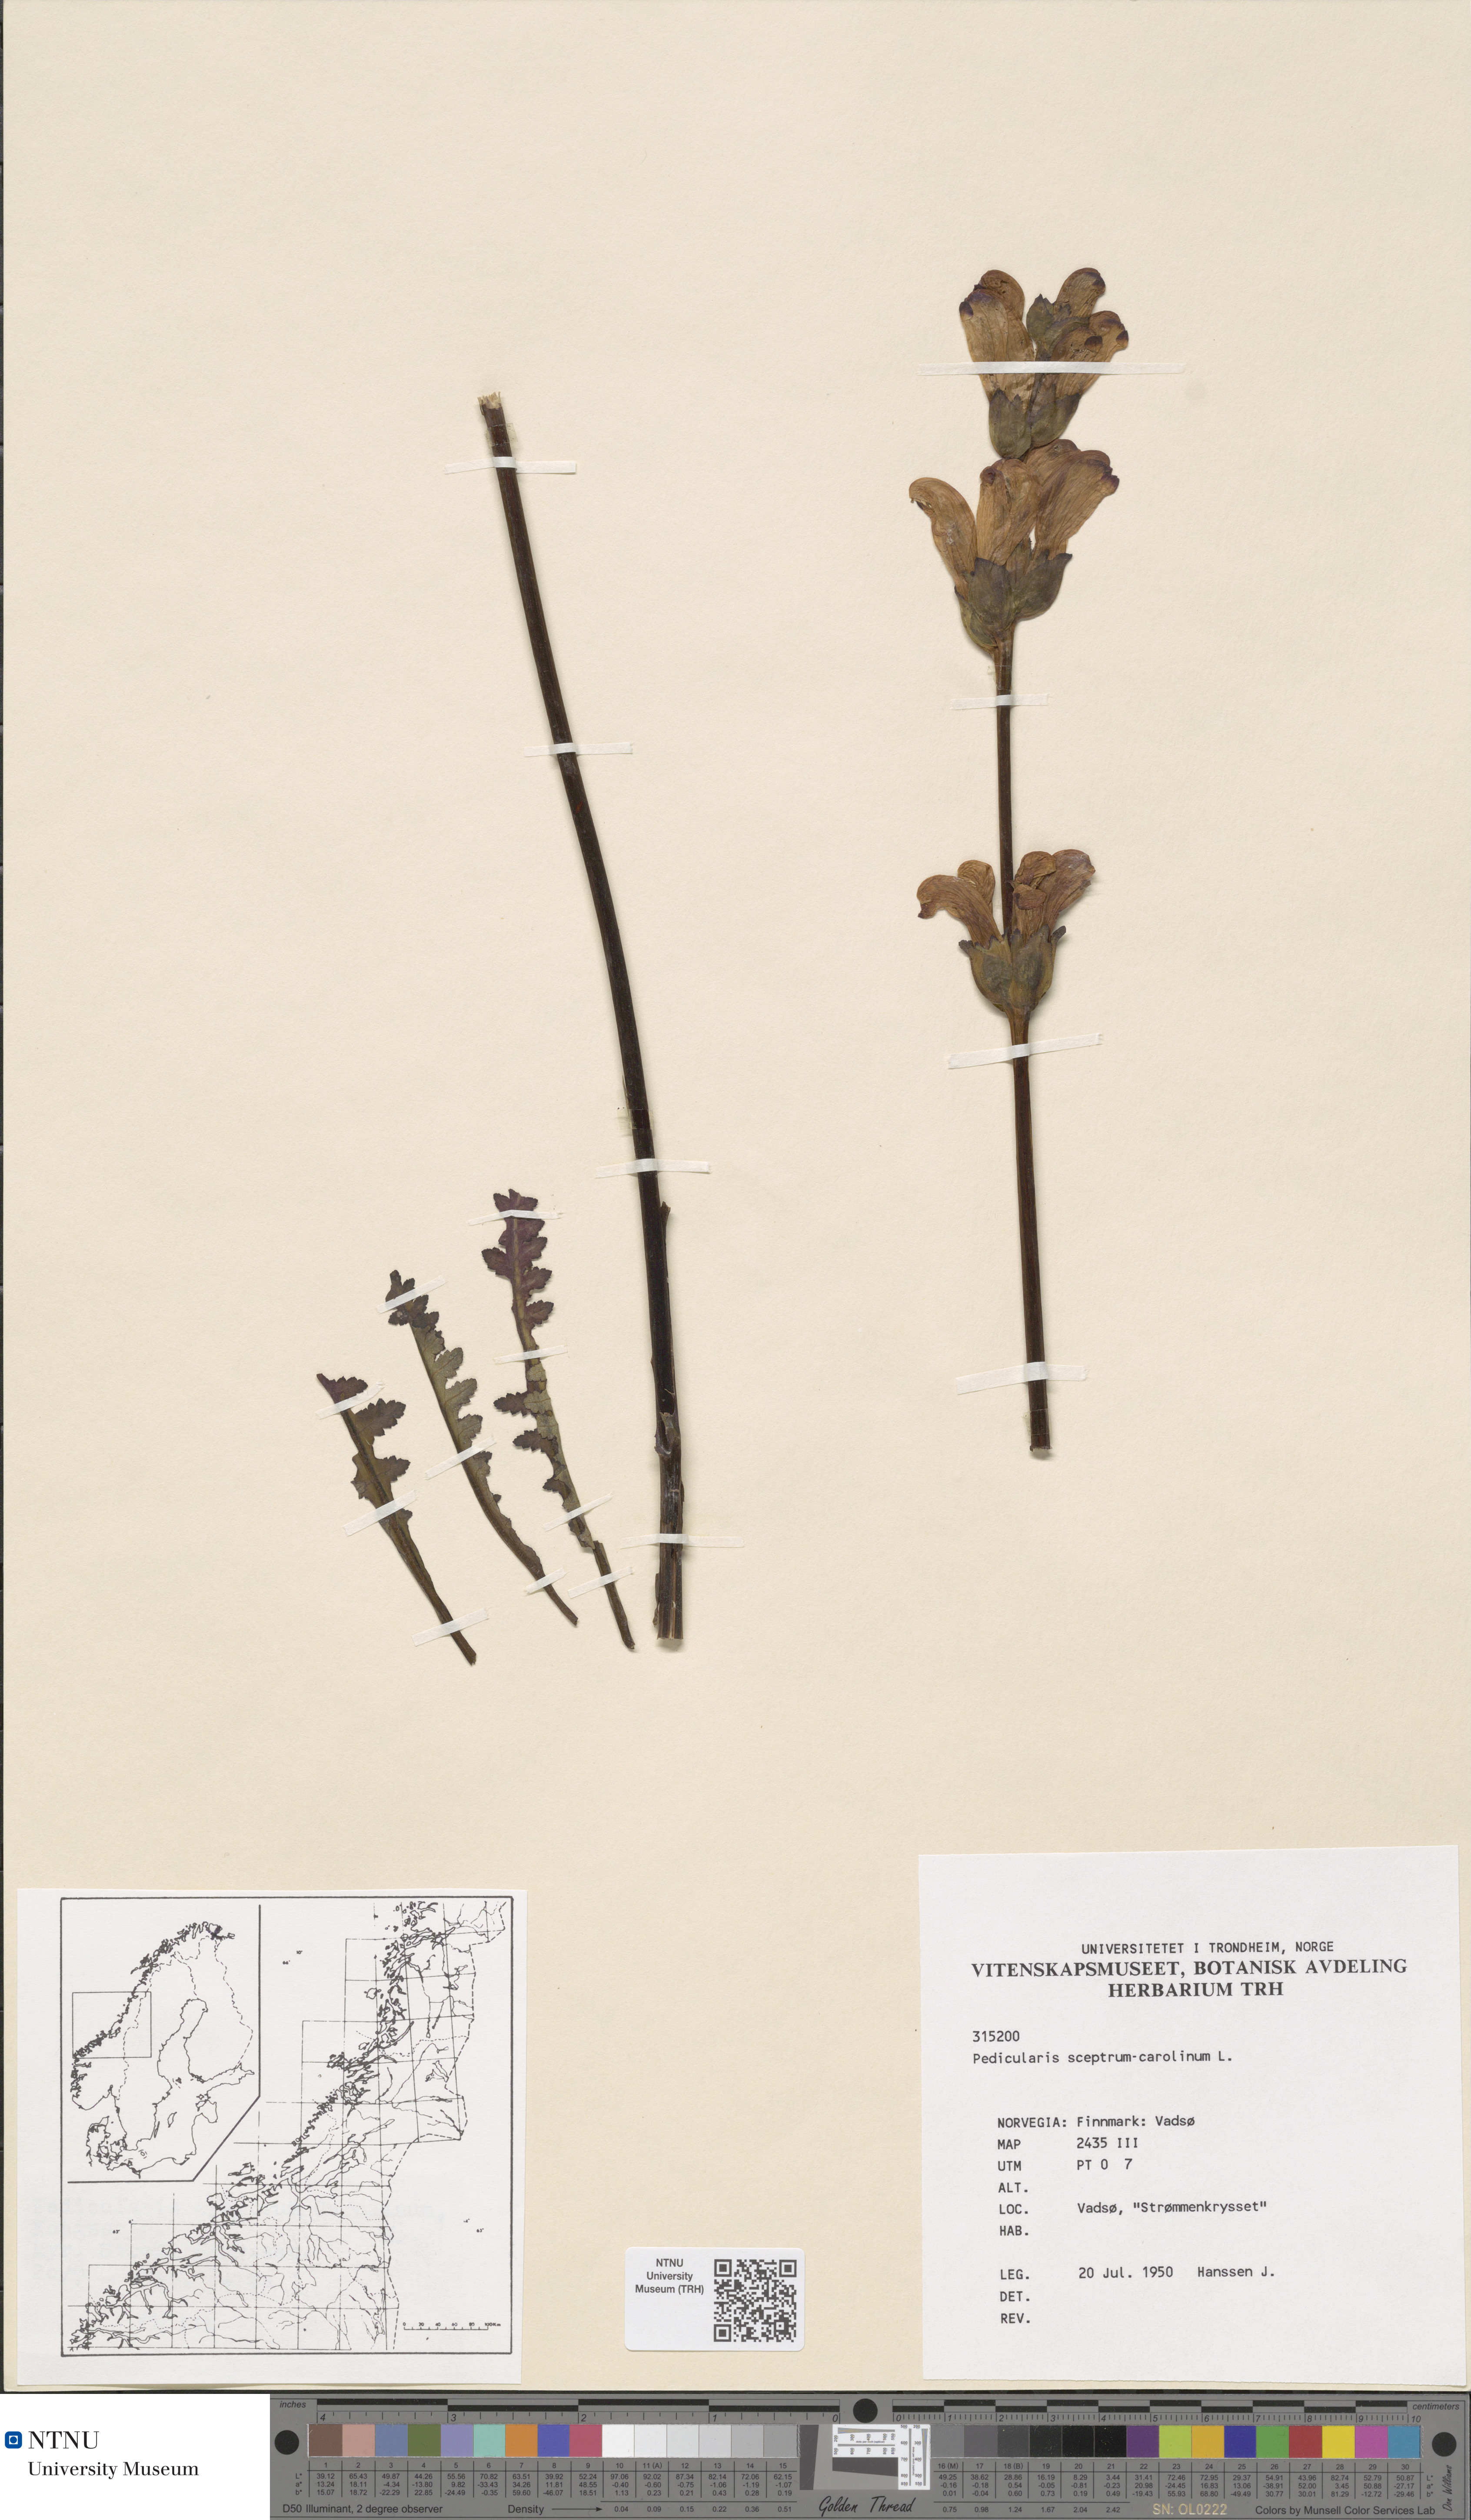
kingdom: Plantae
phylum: Tracheophyta
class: Magnoliopsida
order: Lamiales
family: Orobanchaceae
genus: Pedicularis
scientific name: Pedicularis sceptrum-carolinum
